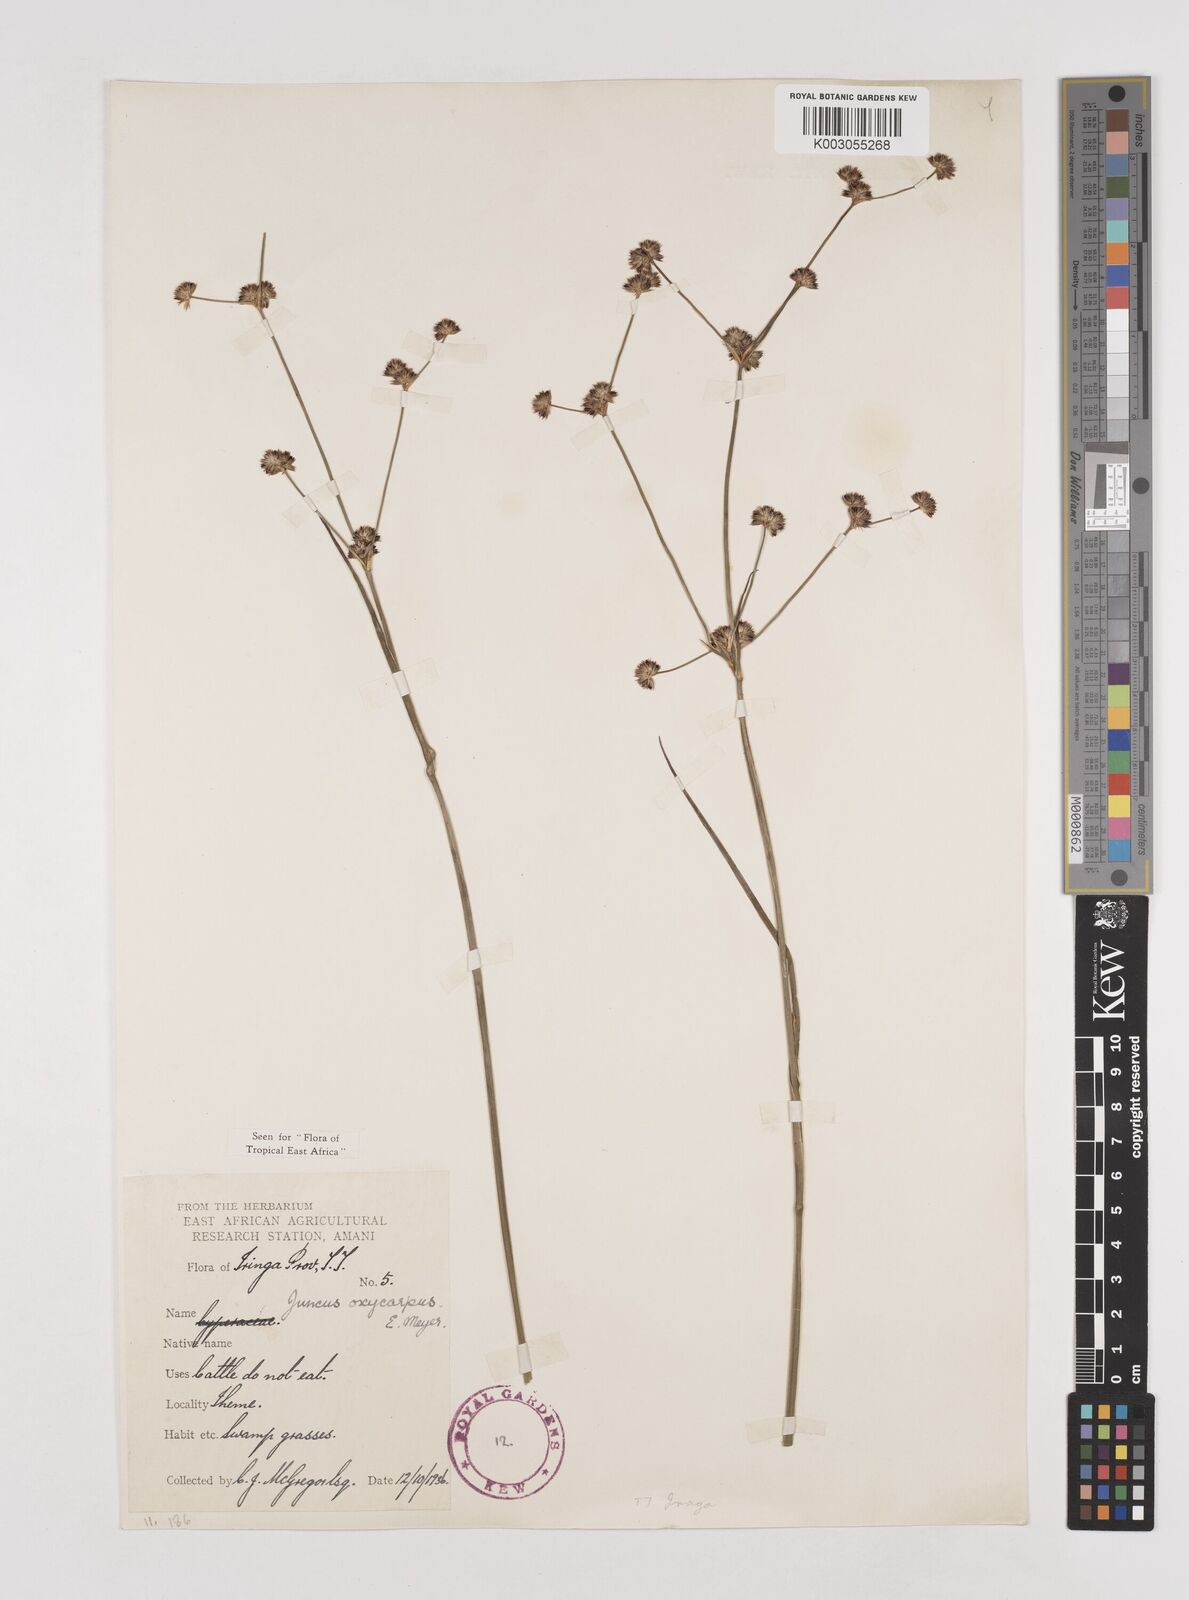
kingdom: Plantae
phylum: Tracheophyta
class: Liliopsida
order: Poales
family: Juncaceae
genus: Juncus
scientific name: Juncus oxycarpus
